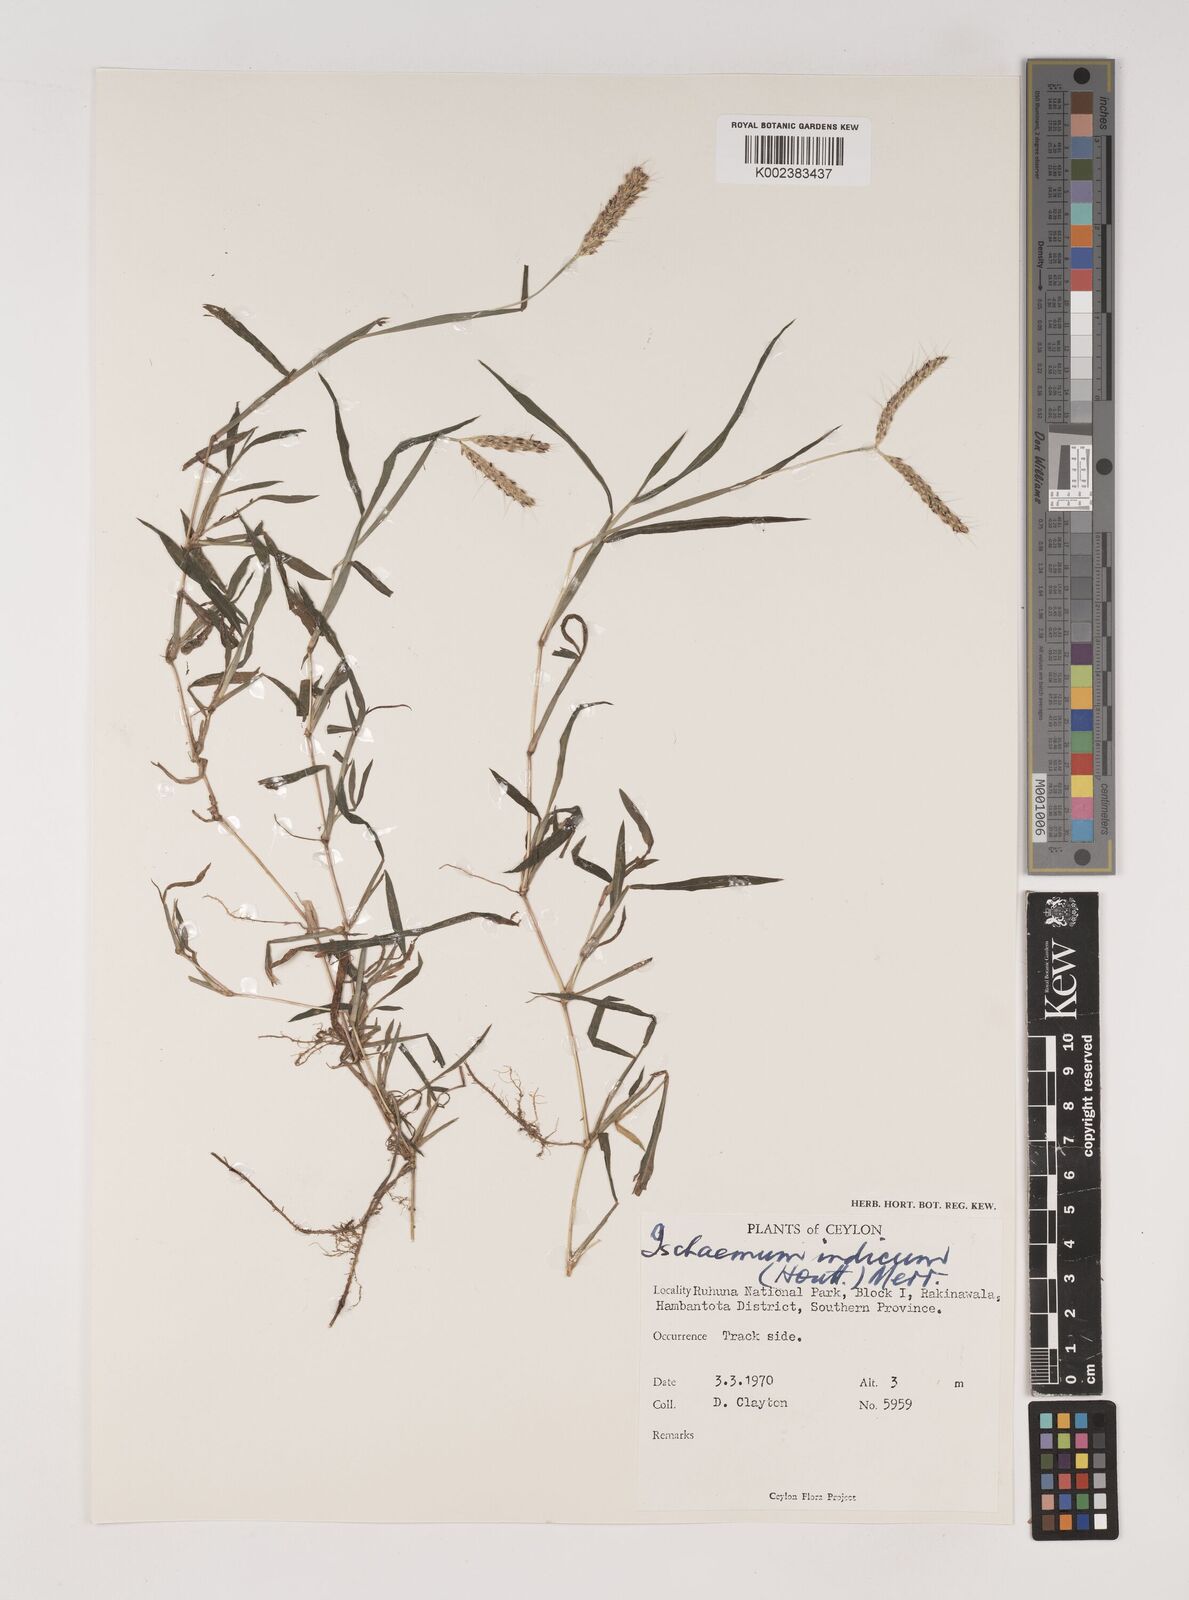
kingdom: Plantae
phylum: Tracheophyta
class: Liliopsida
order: Poales
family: Poaceae
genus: Polytrias
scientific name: Polytrias indica
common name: Indian murainagrass
